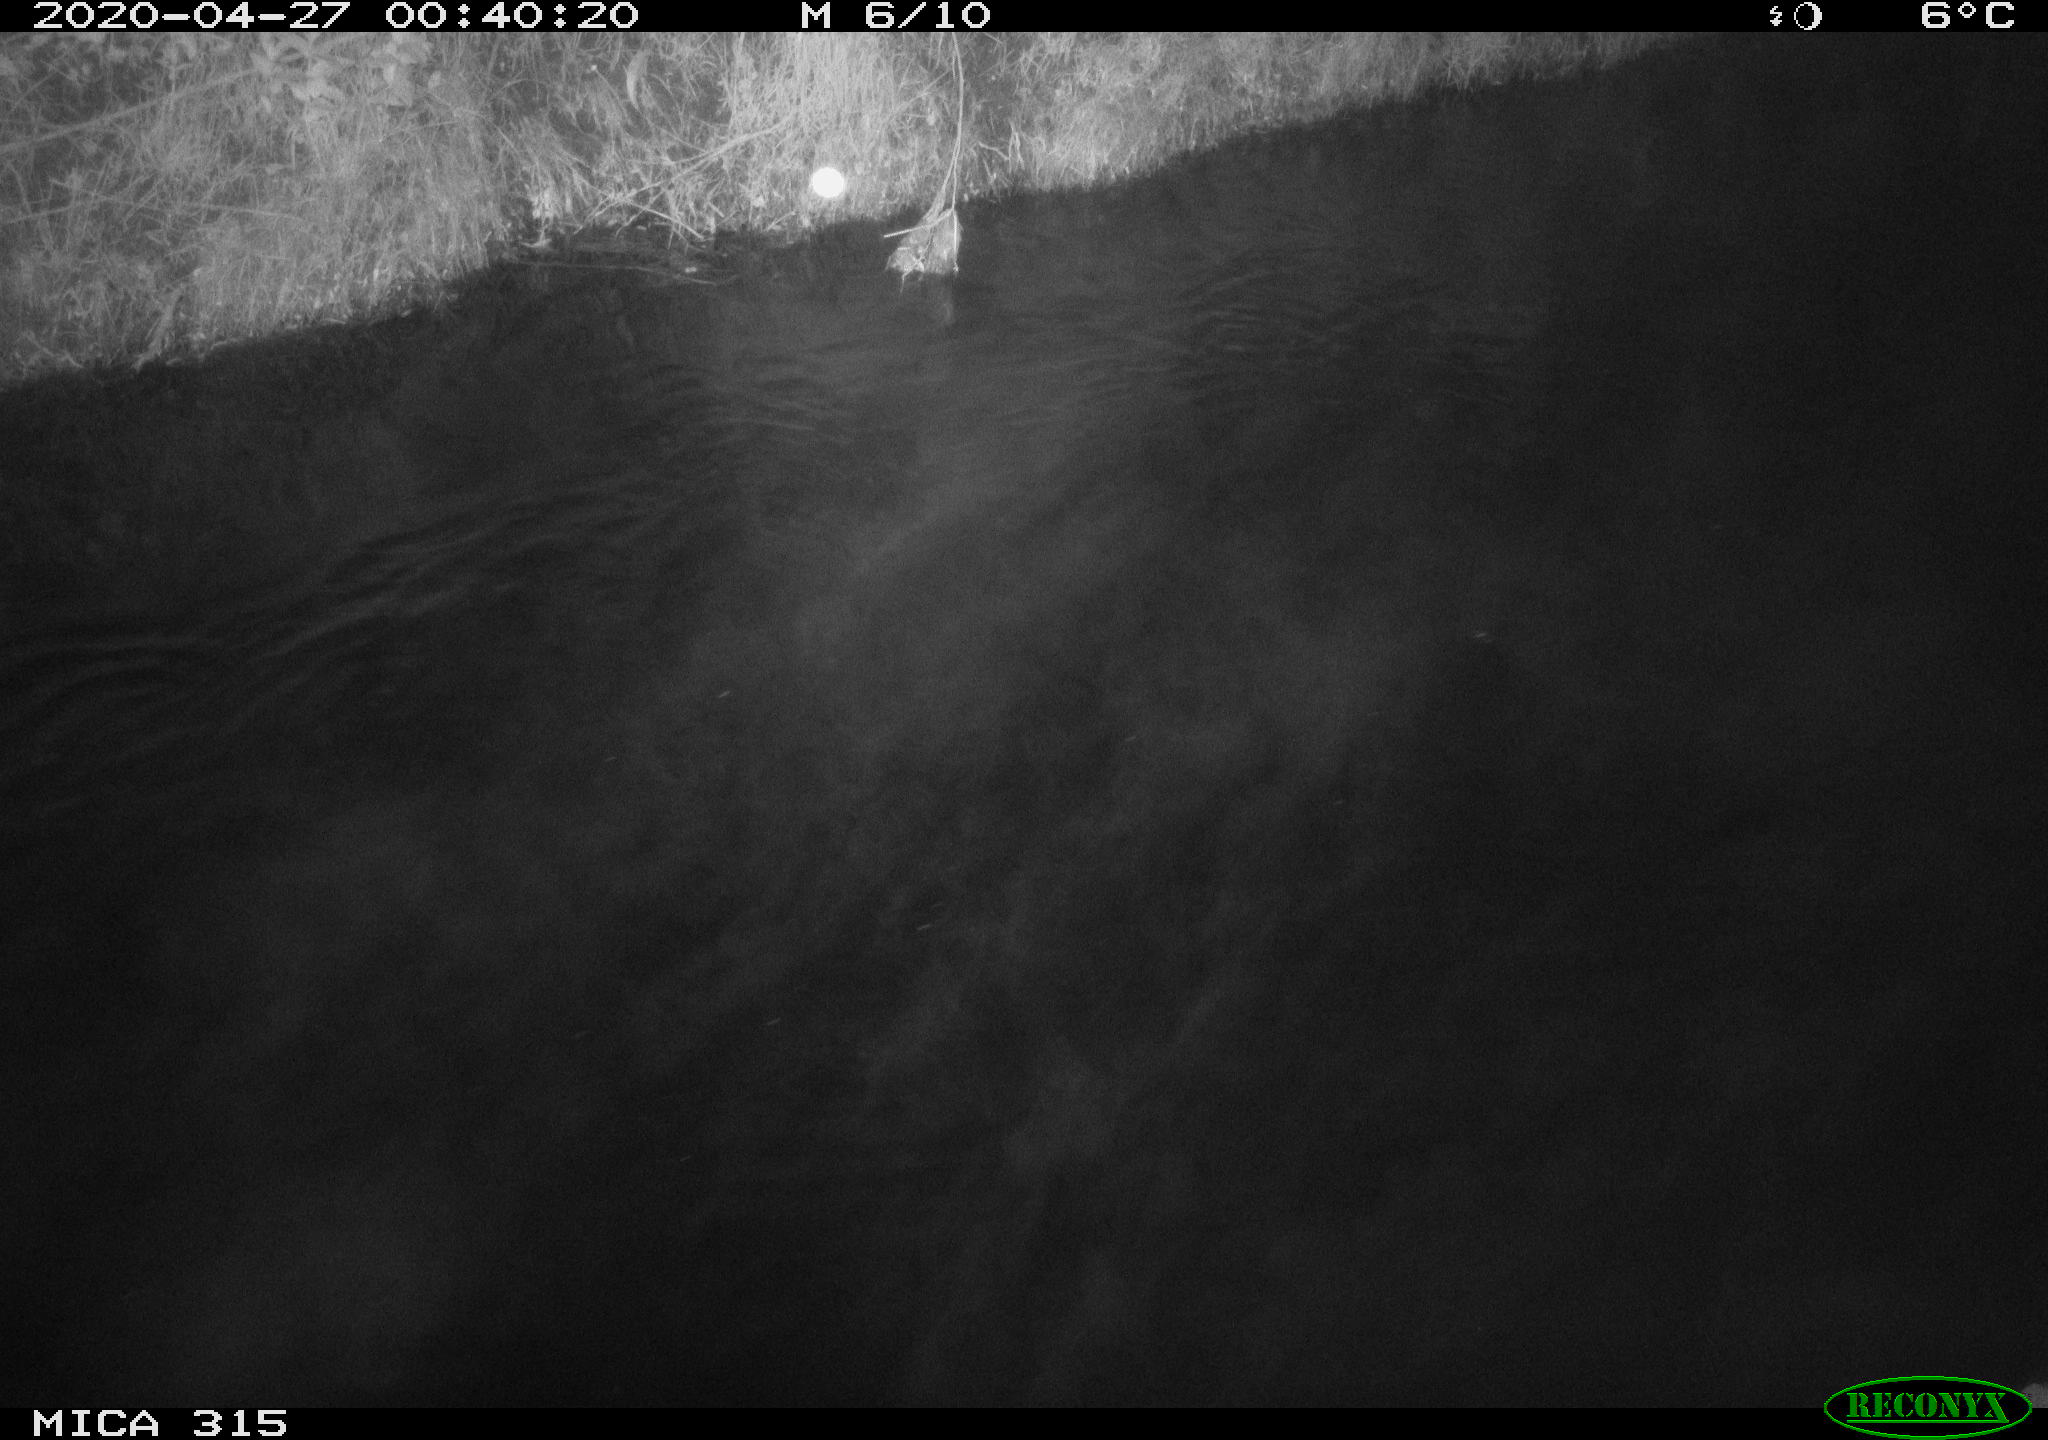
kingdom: Animalia
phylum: Chordata
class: Aves
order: Anseriformes
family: Anatidae
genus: Anas
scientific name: Anas platyrhynchos
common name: Mallard
